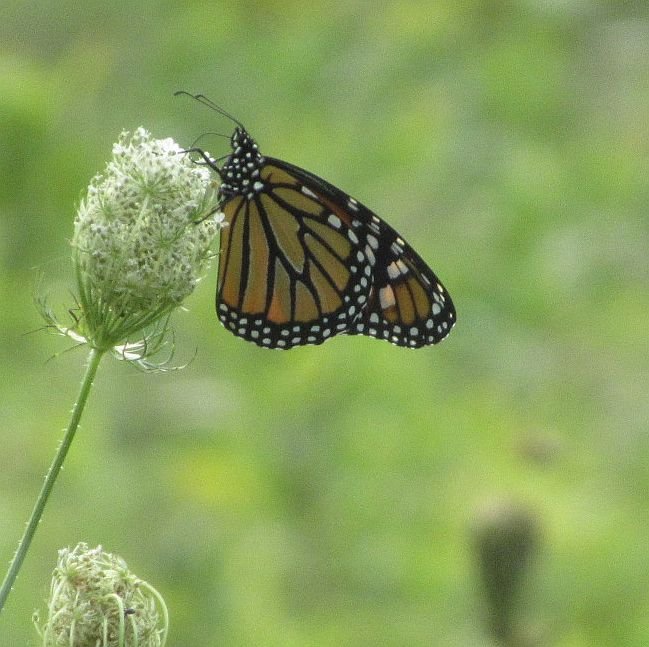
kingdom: Animalia
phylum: Arthropoda
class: Insecta
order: Lepidoptera
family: Nymphalidae
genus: Danaus
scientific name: Danaus plexippus
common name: Monarch
